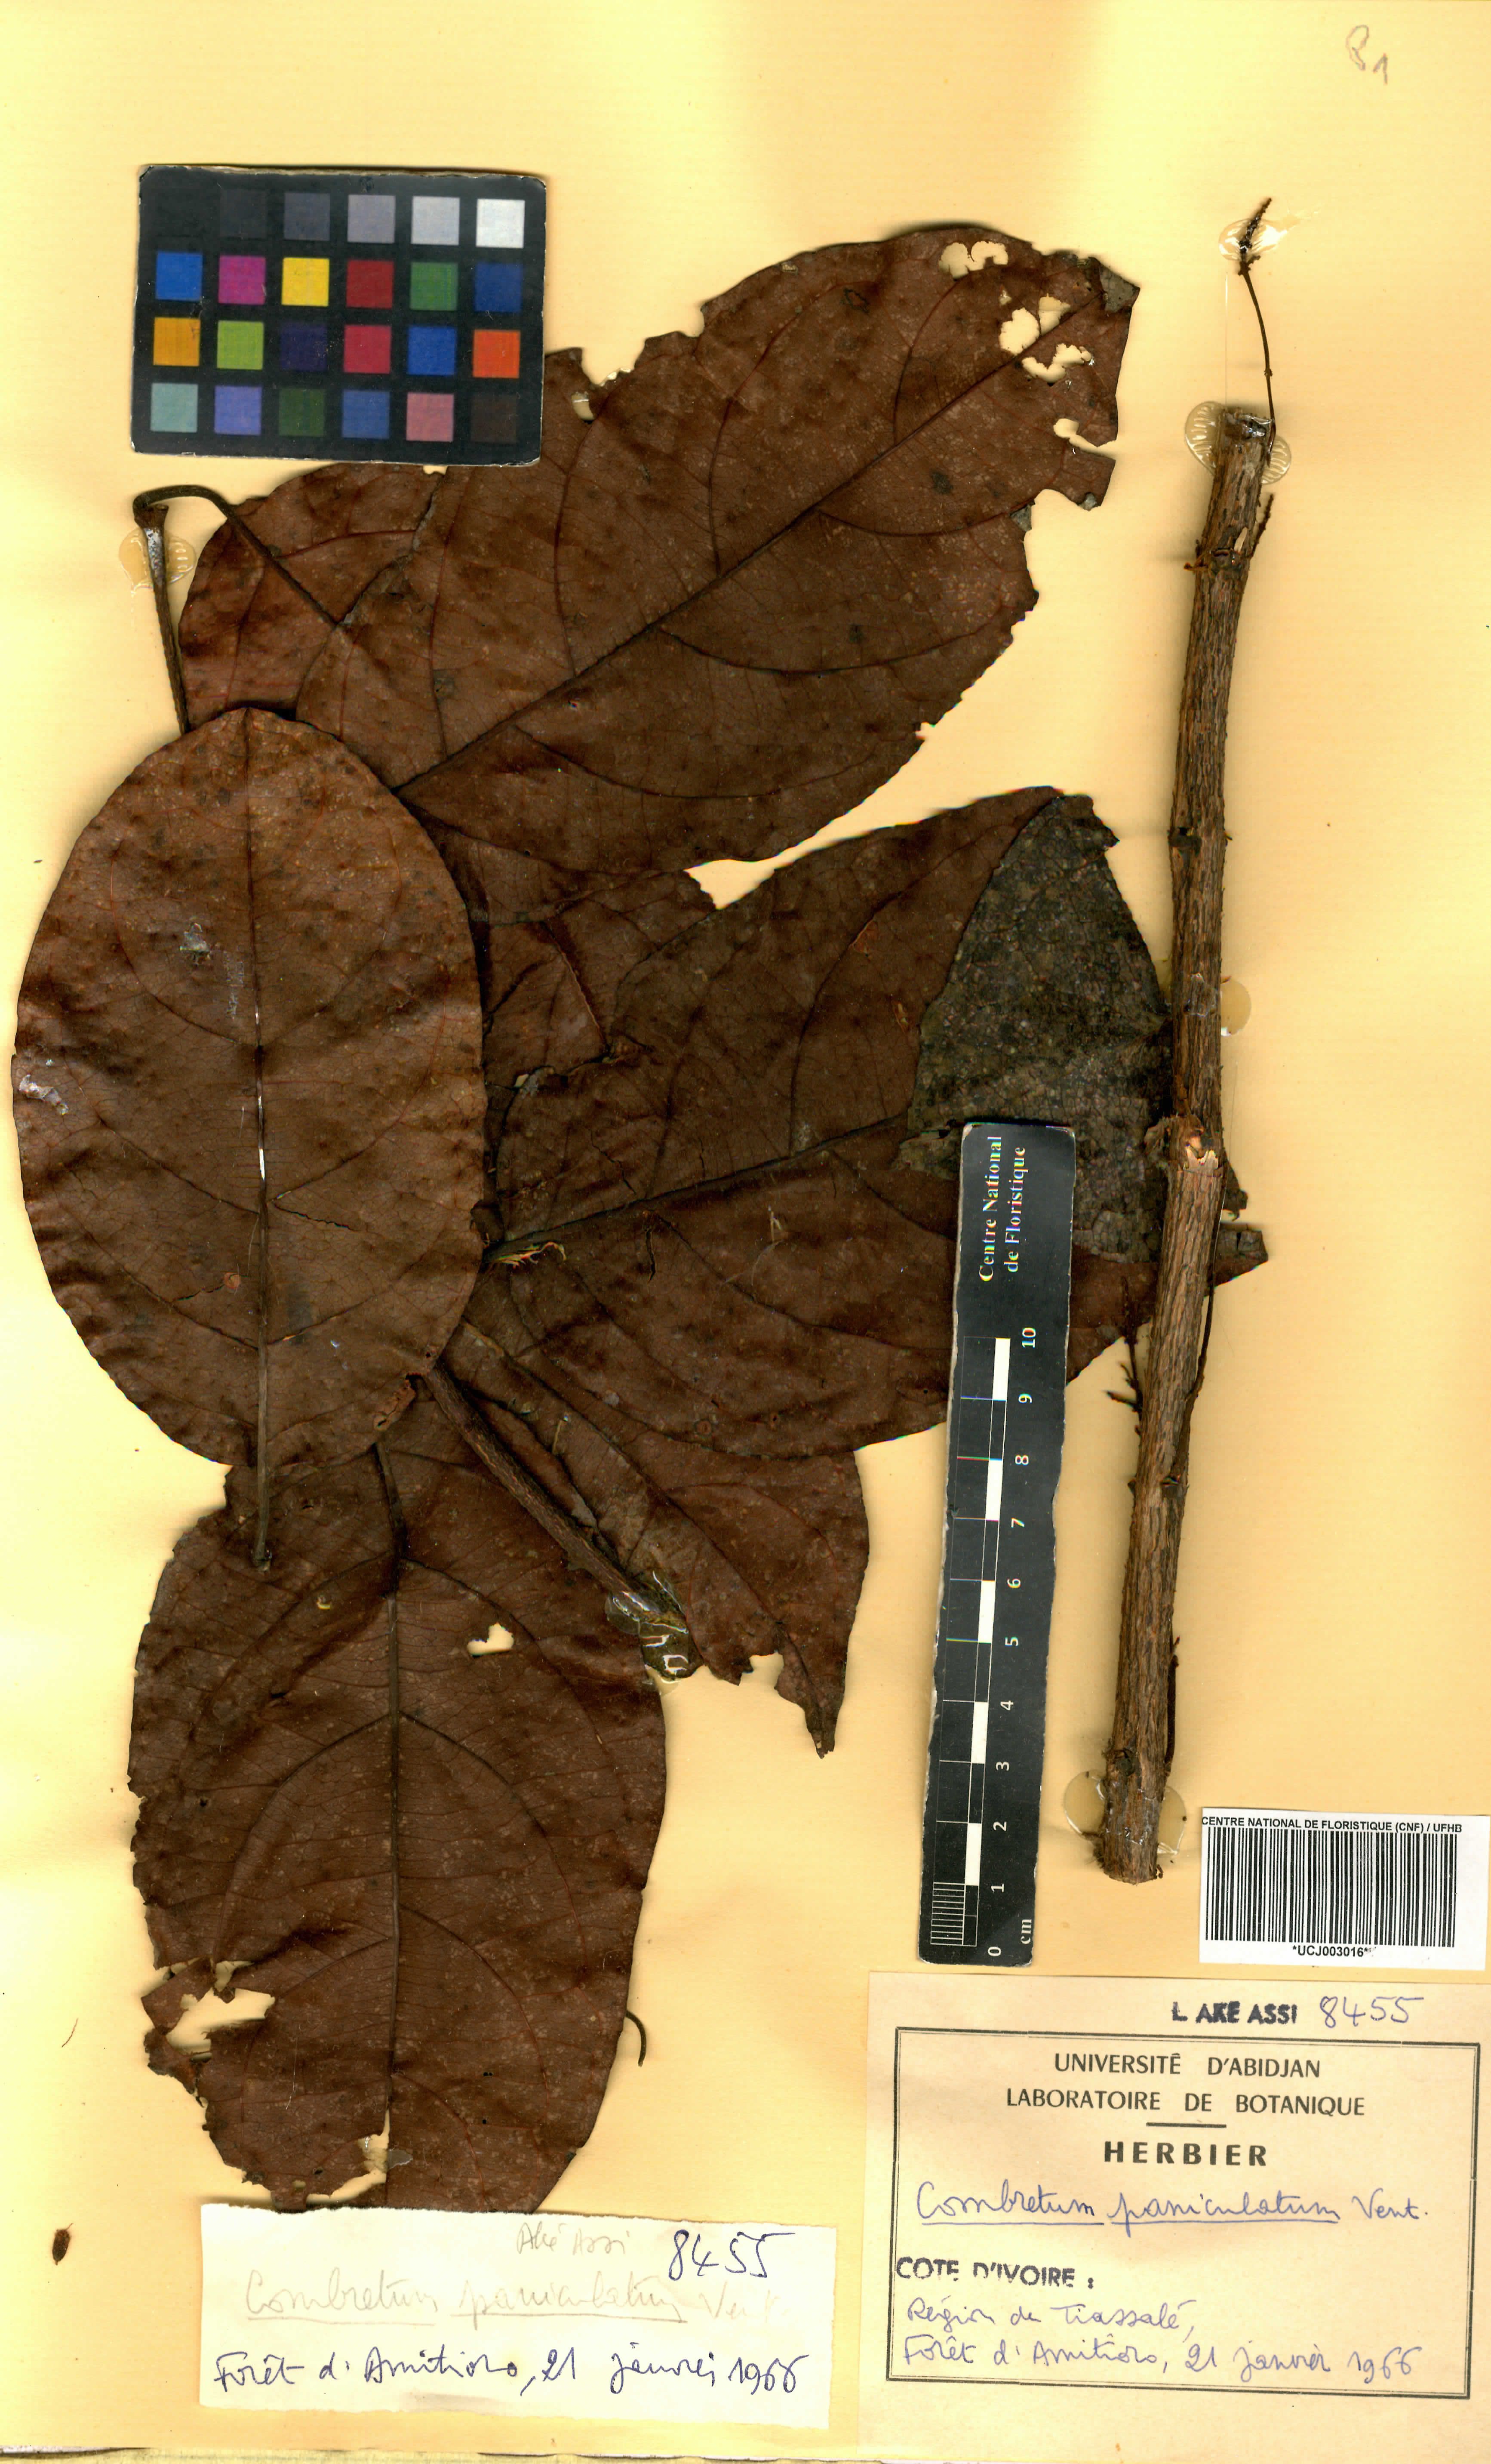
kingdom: Plantae
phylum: Tracheophyta
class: Magnoliopsida
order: Myrtales
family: Combretaceae
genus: Combretum
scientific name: Combretum paniculatum
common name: Fire vine
